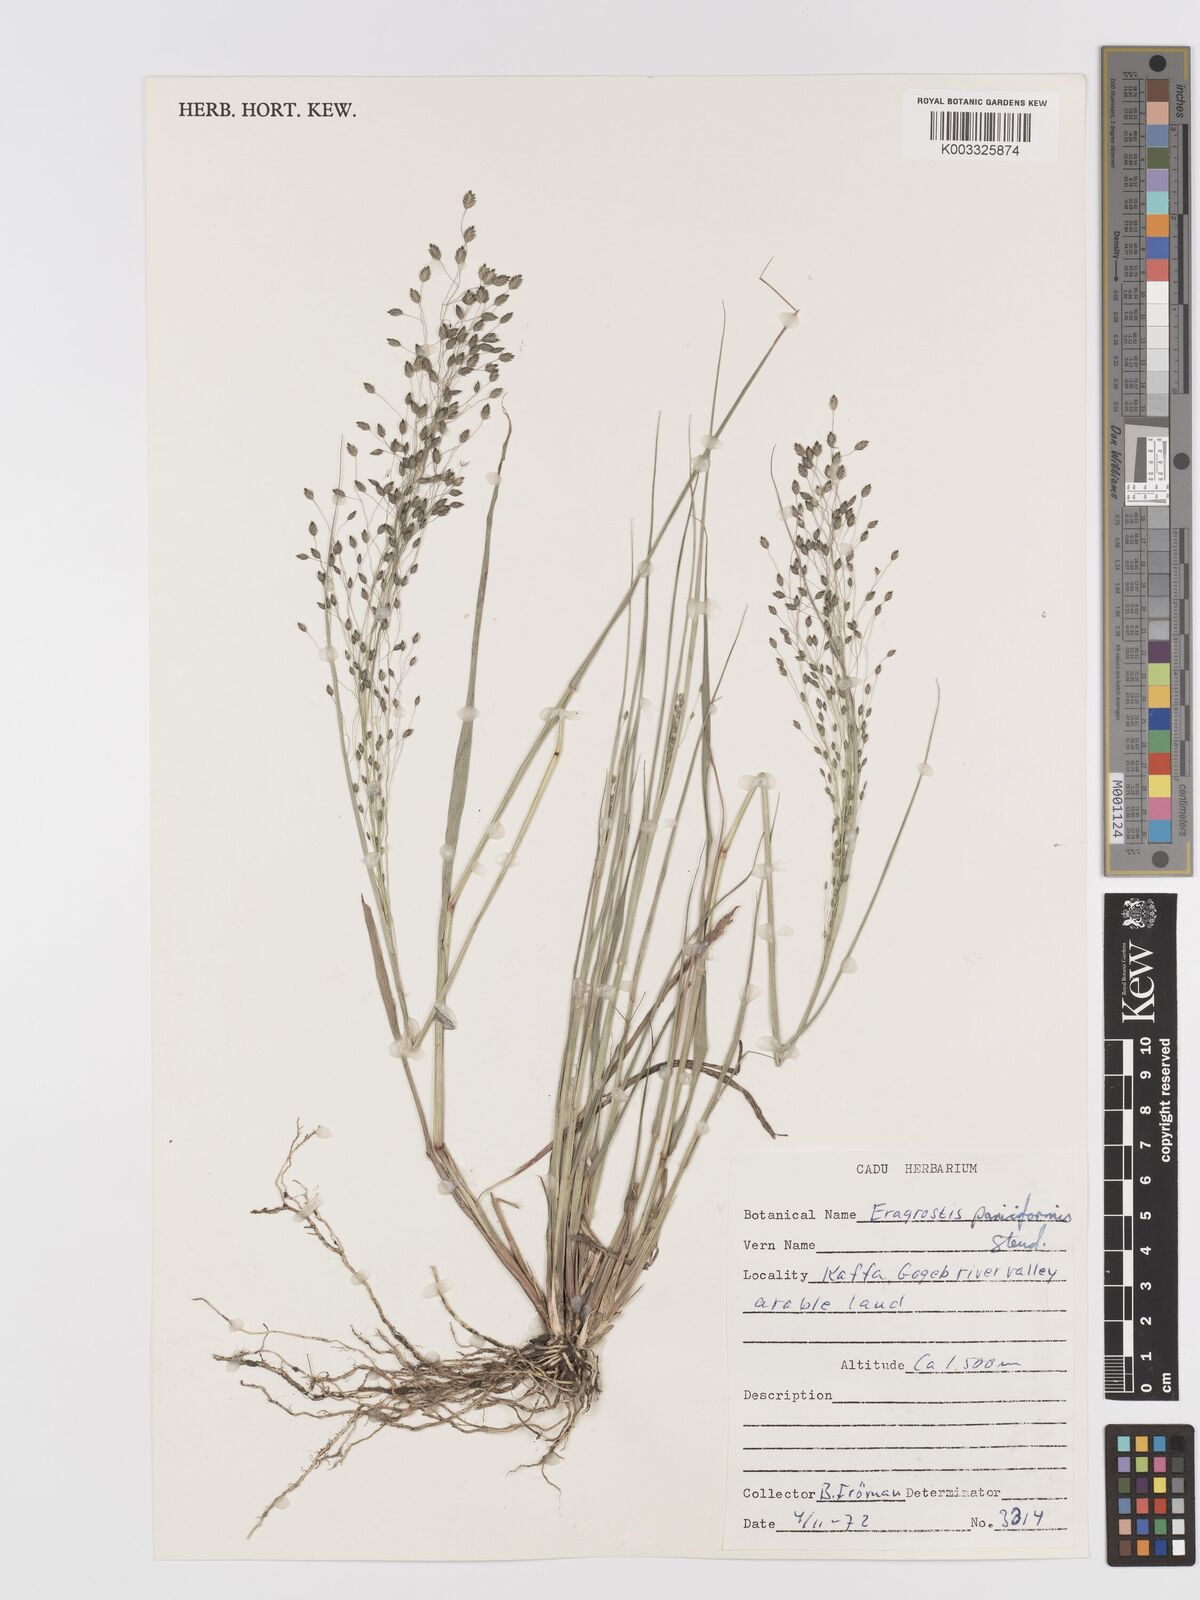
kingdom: Plantae
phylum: Tracheophyta
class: Liliopsida
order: Poales
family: Poaceae
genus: Eragrostis
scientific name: Eragrostis paniciformis
